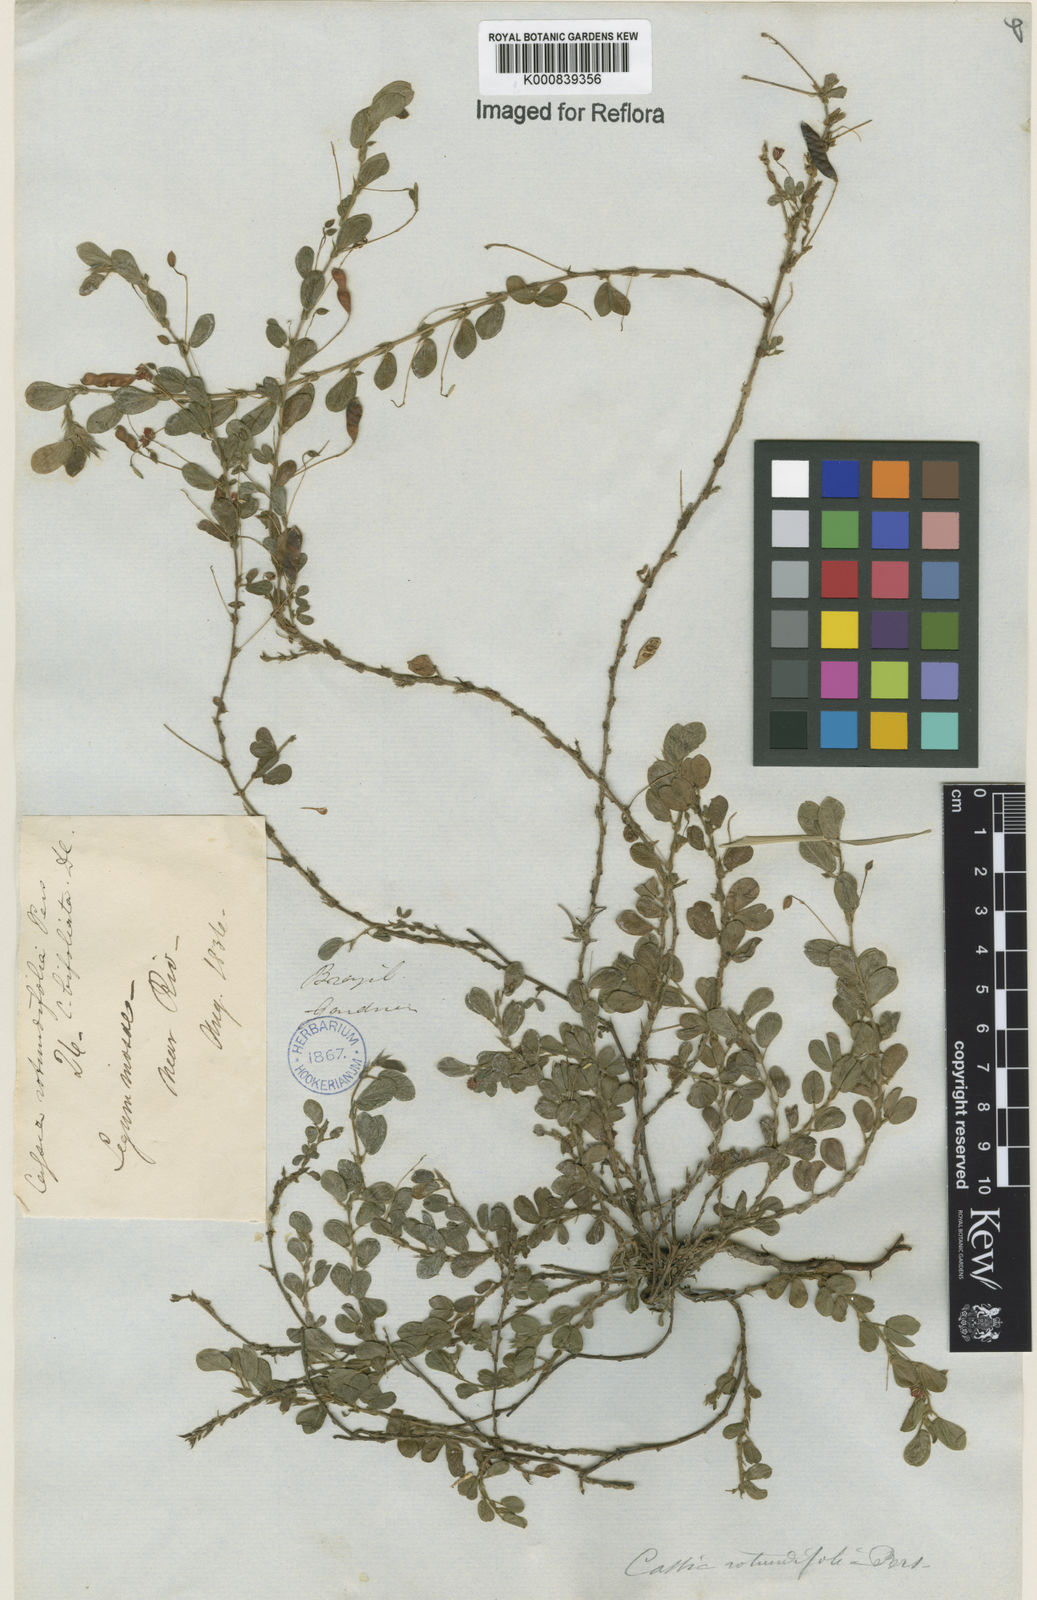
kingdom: Plantae
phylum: Tracheophyta
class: Magnoliopsida
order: Fabales
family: Fabaceae
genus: Chamaecrista
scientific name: Chamaecrista rotundifolia
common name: Round-leaf cassia
